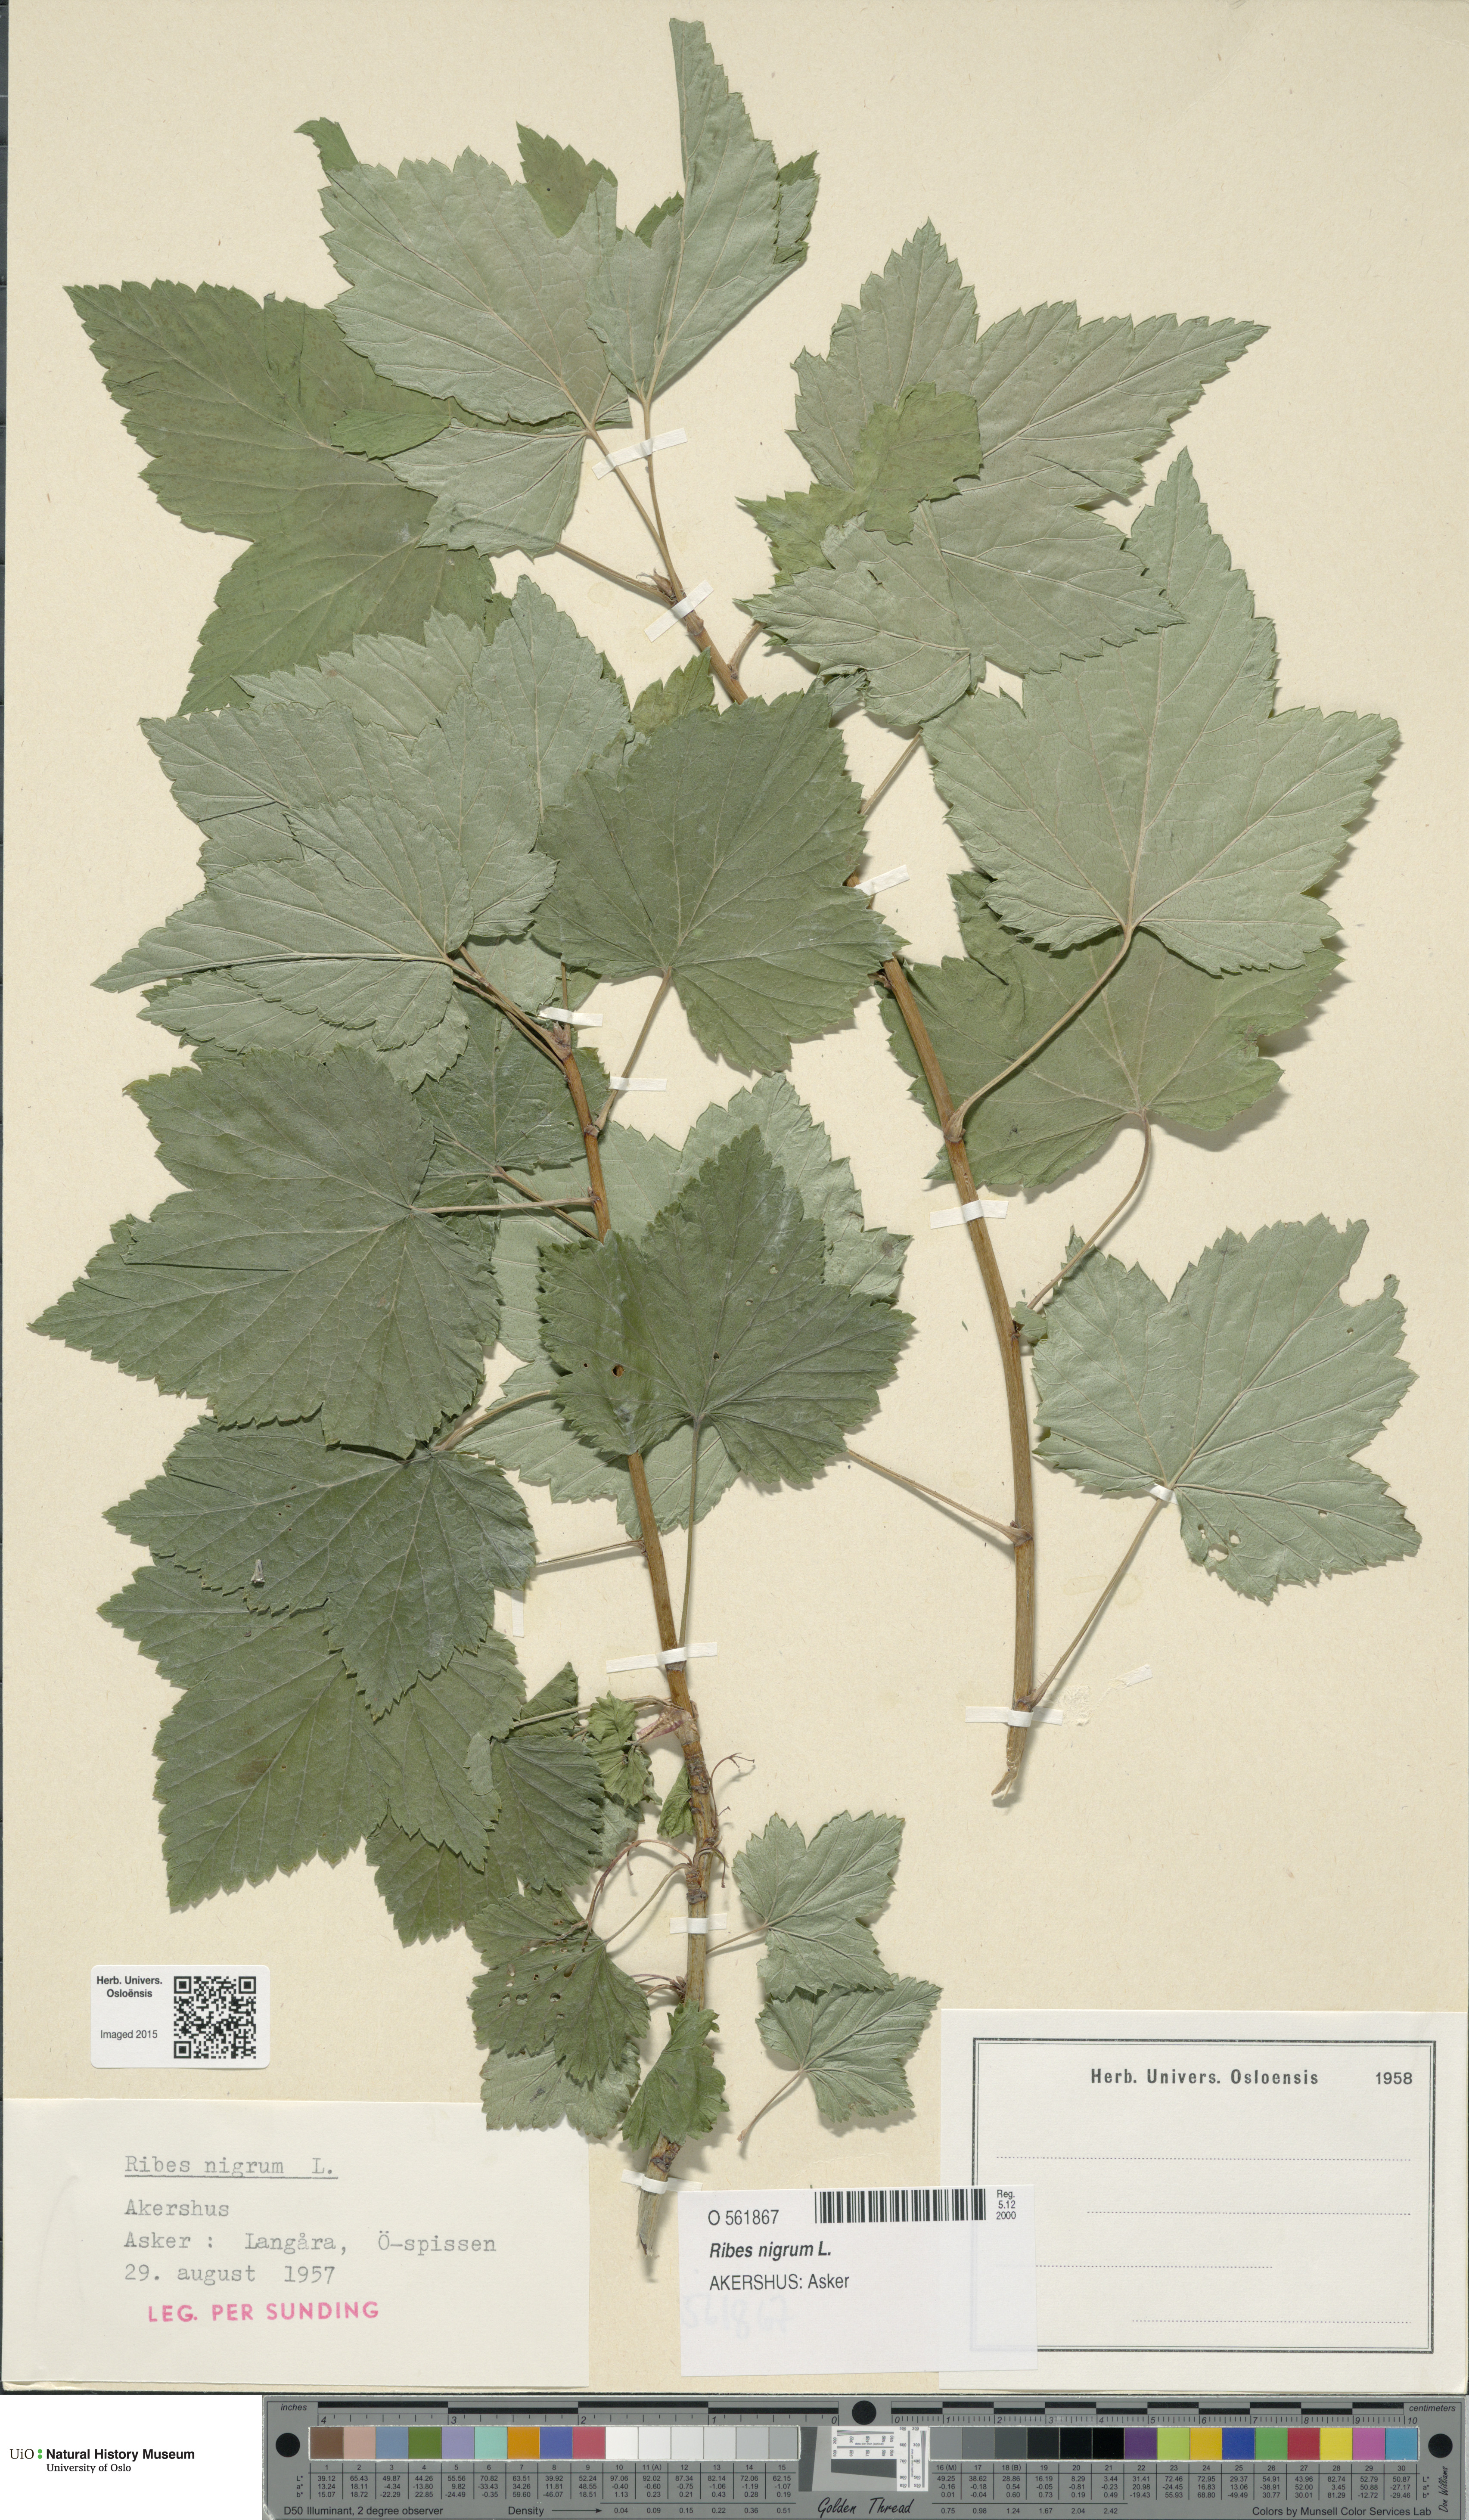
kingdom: Plantae
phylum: Tracheophyta
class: Magnoliopsida
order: Saxifragales
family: Grossulariaceae
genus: Ribes
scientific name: Ribes nigrum
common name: Black currant
